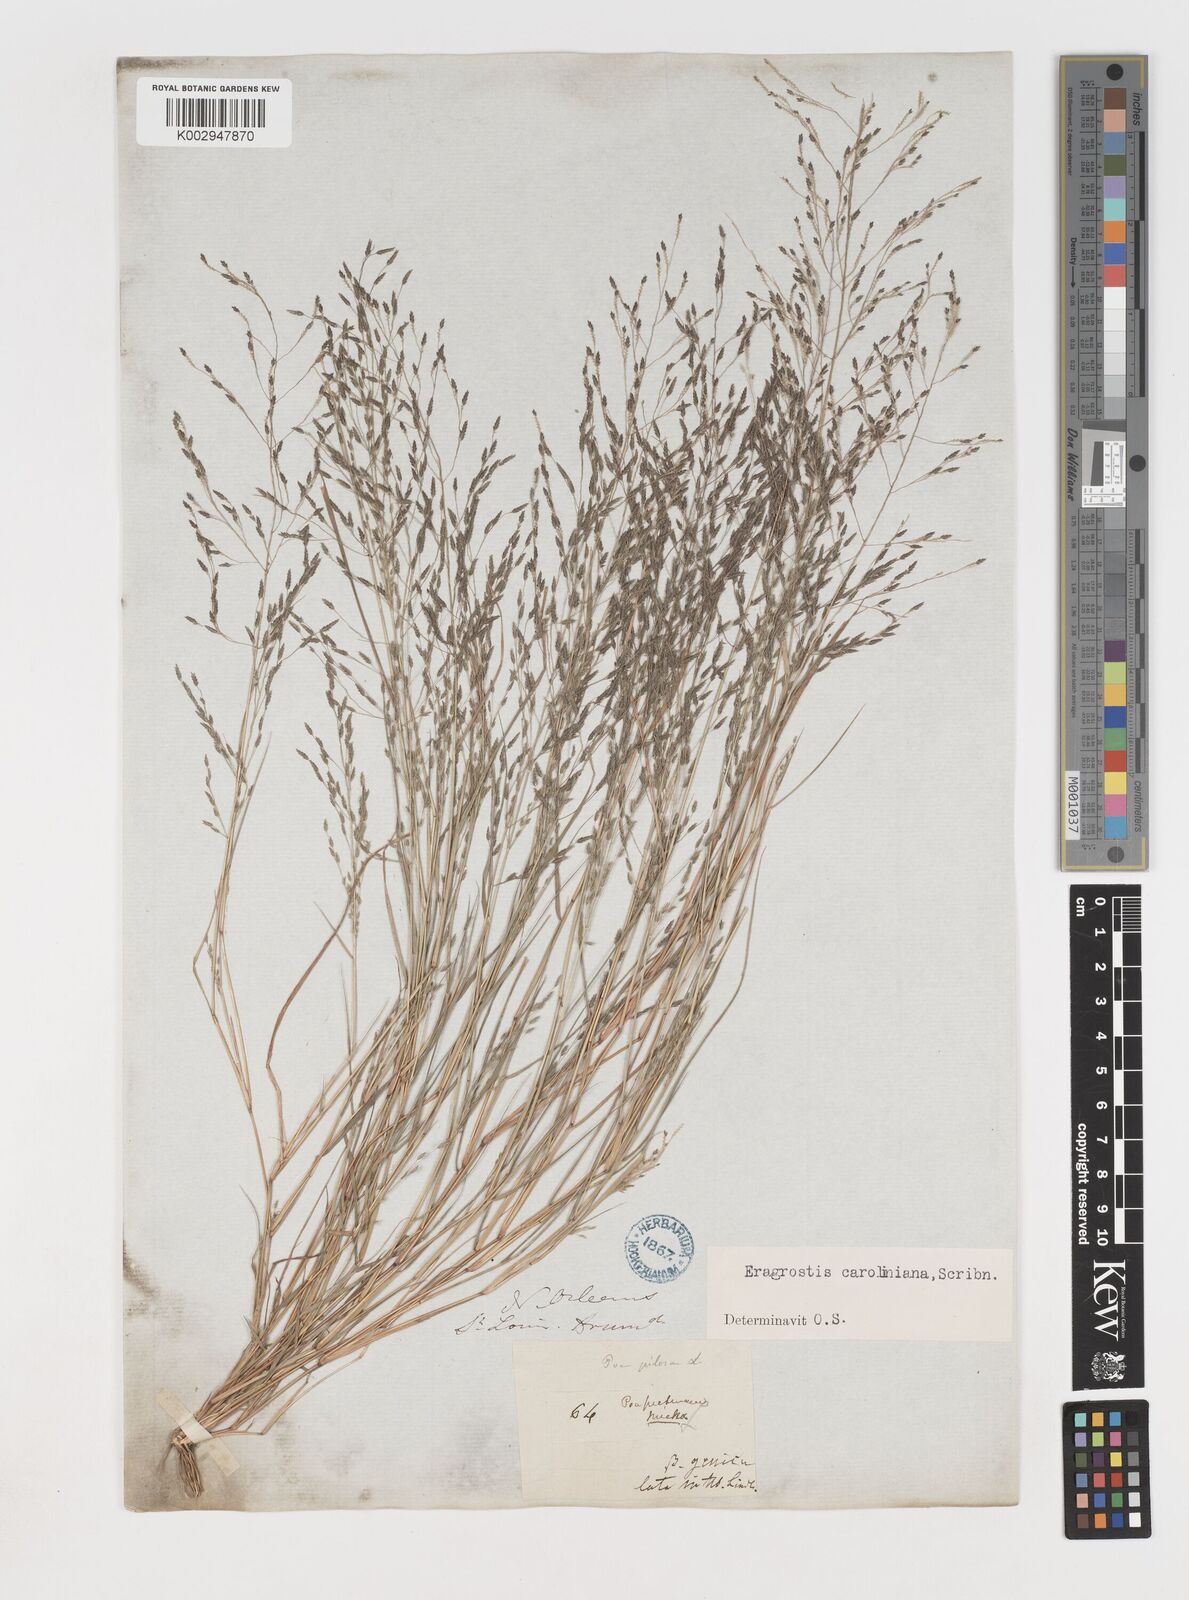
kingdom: Plantae
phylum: Tracheophyta
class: Liliopsida
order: Poales
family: Poaceae
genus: Eragrostis
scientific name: Eragrostis
